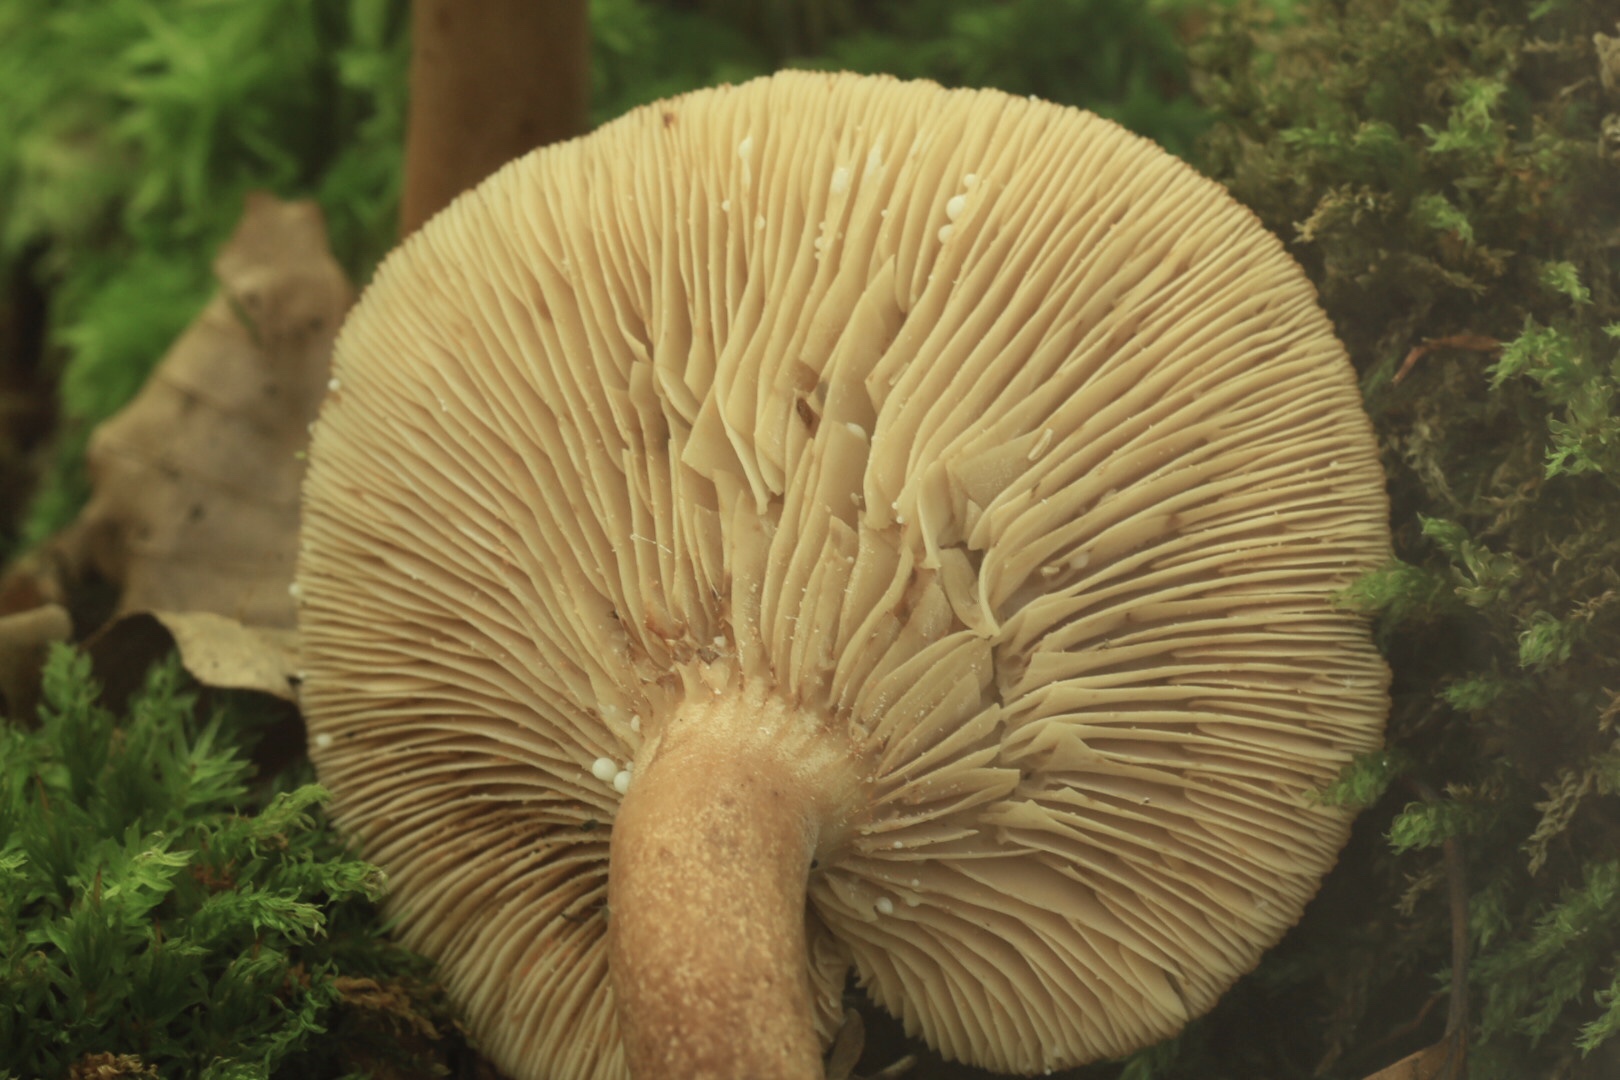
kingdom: Fungi
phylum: Basidiomycota
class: Agaricomycetes
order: Russulales
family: Russulaceae
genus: Lactarius
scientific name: Lactarius quietus
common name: ege-mælkehat
